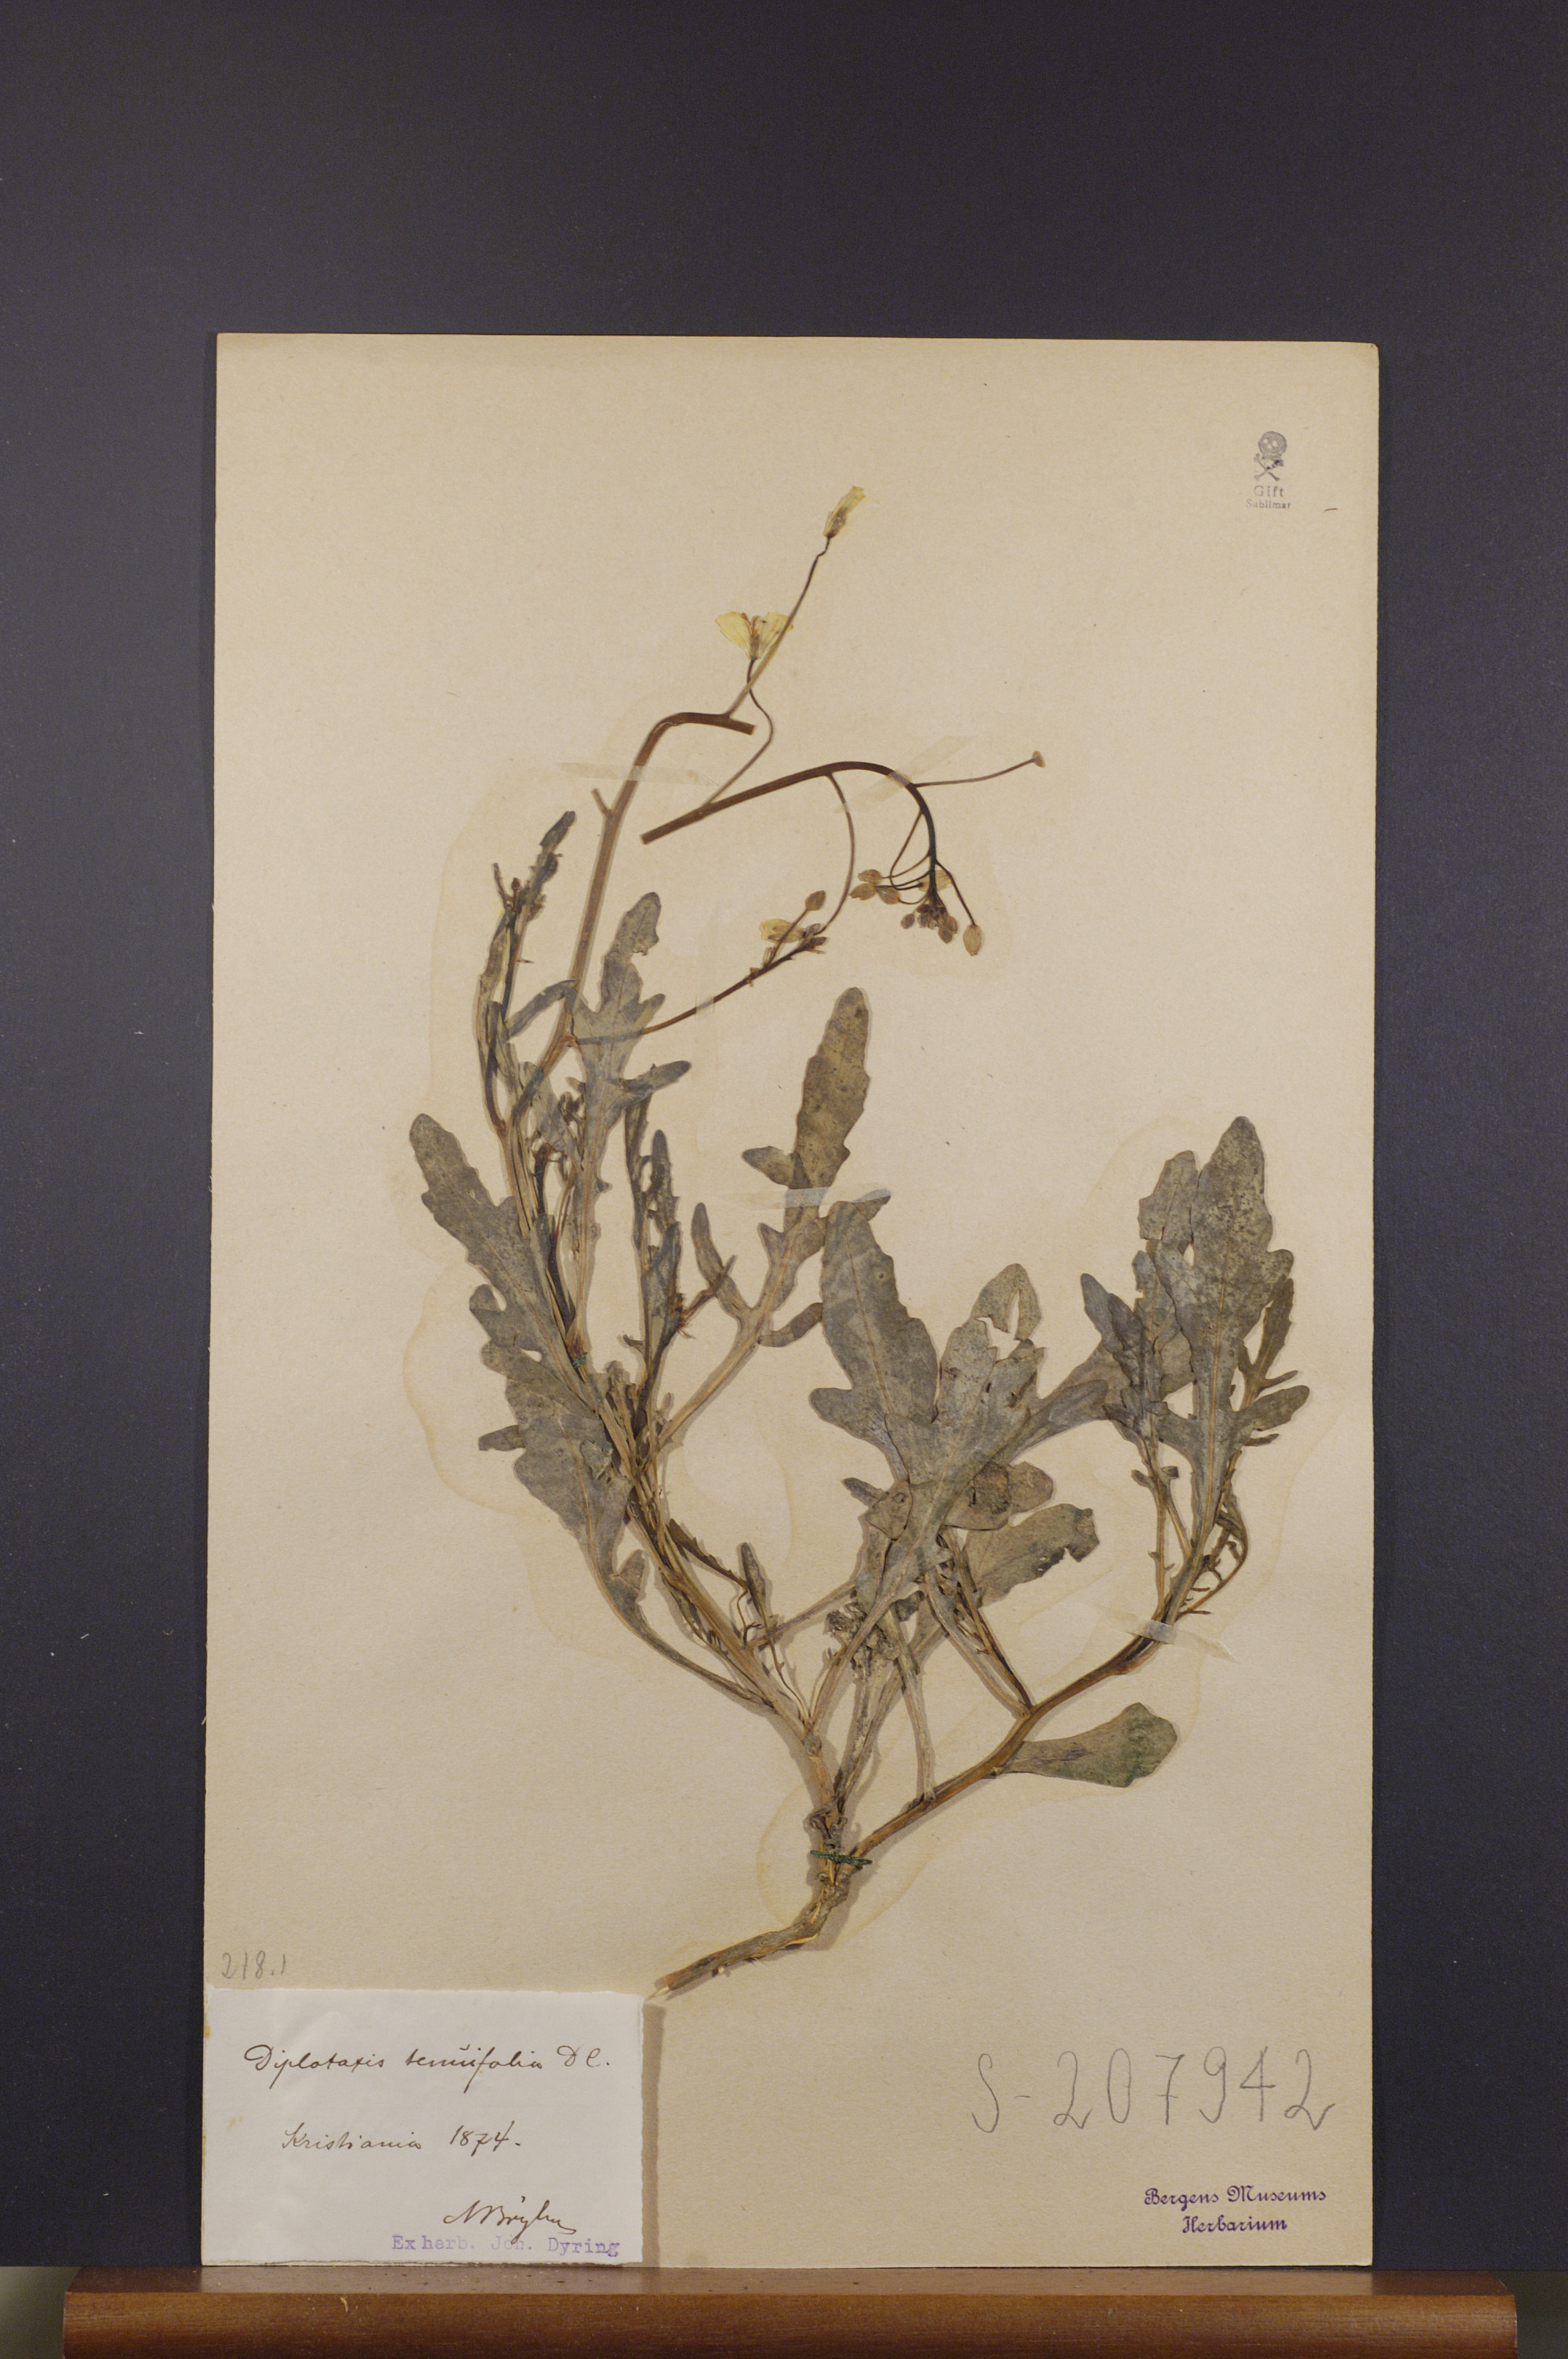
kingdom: Plantae
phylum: Tracheophyta
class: Magnoliopsida
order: Brassicales
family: Brassicaceae
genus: Diplotaxis
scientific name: Diplotaxis tenuifolia
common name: Perennial wall-rocket
